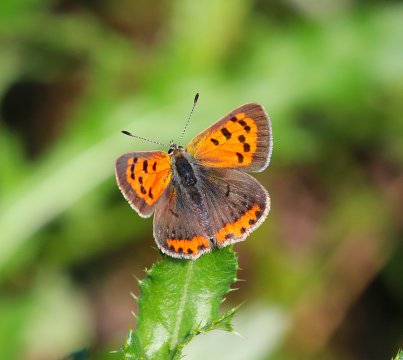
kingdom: Animalia
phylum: Arthropoda
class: Insecta
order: Lepidoptera
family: Lycaenidae
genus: Lycaena
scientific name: Lycaena phlaeas
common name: American Copper
